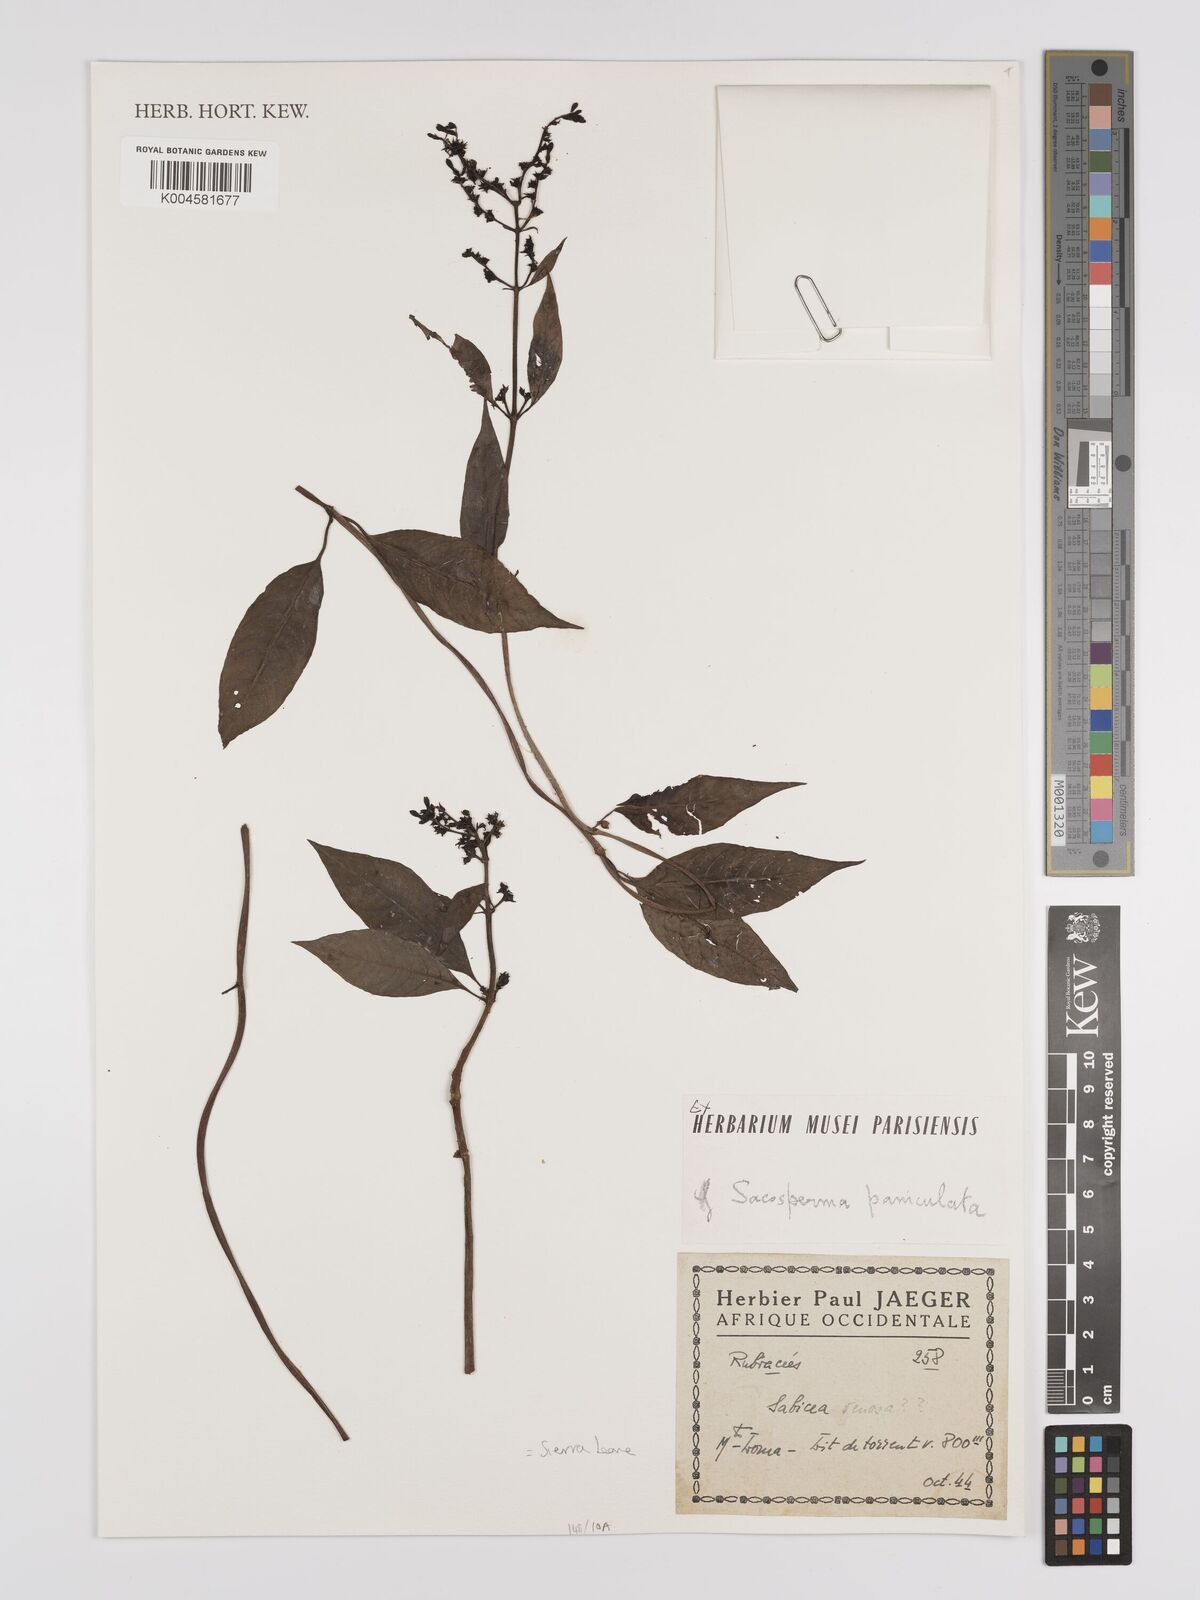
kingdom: Plantae
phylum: Tracheophyta
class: Magnoliopsida
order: Gentianales
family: Rubiaceae
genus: Sacosperma
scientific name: Sacosperma paniculatum
